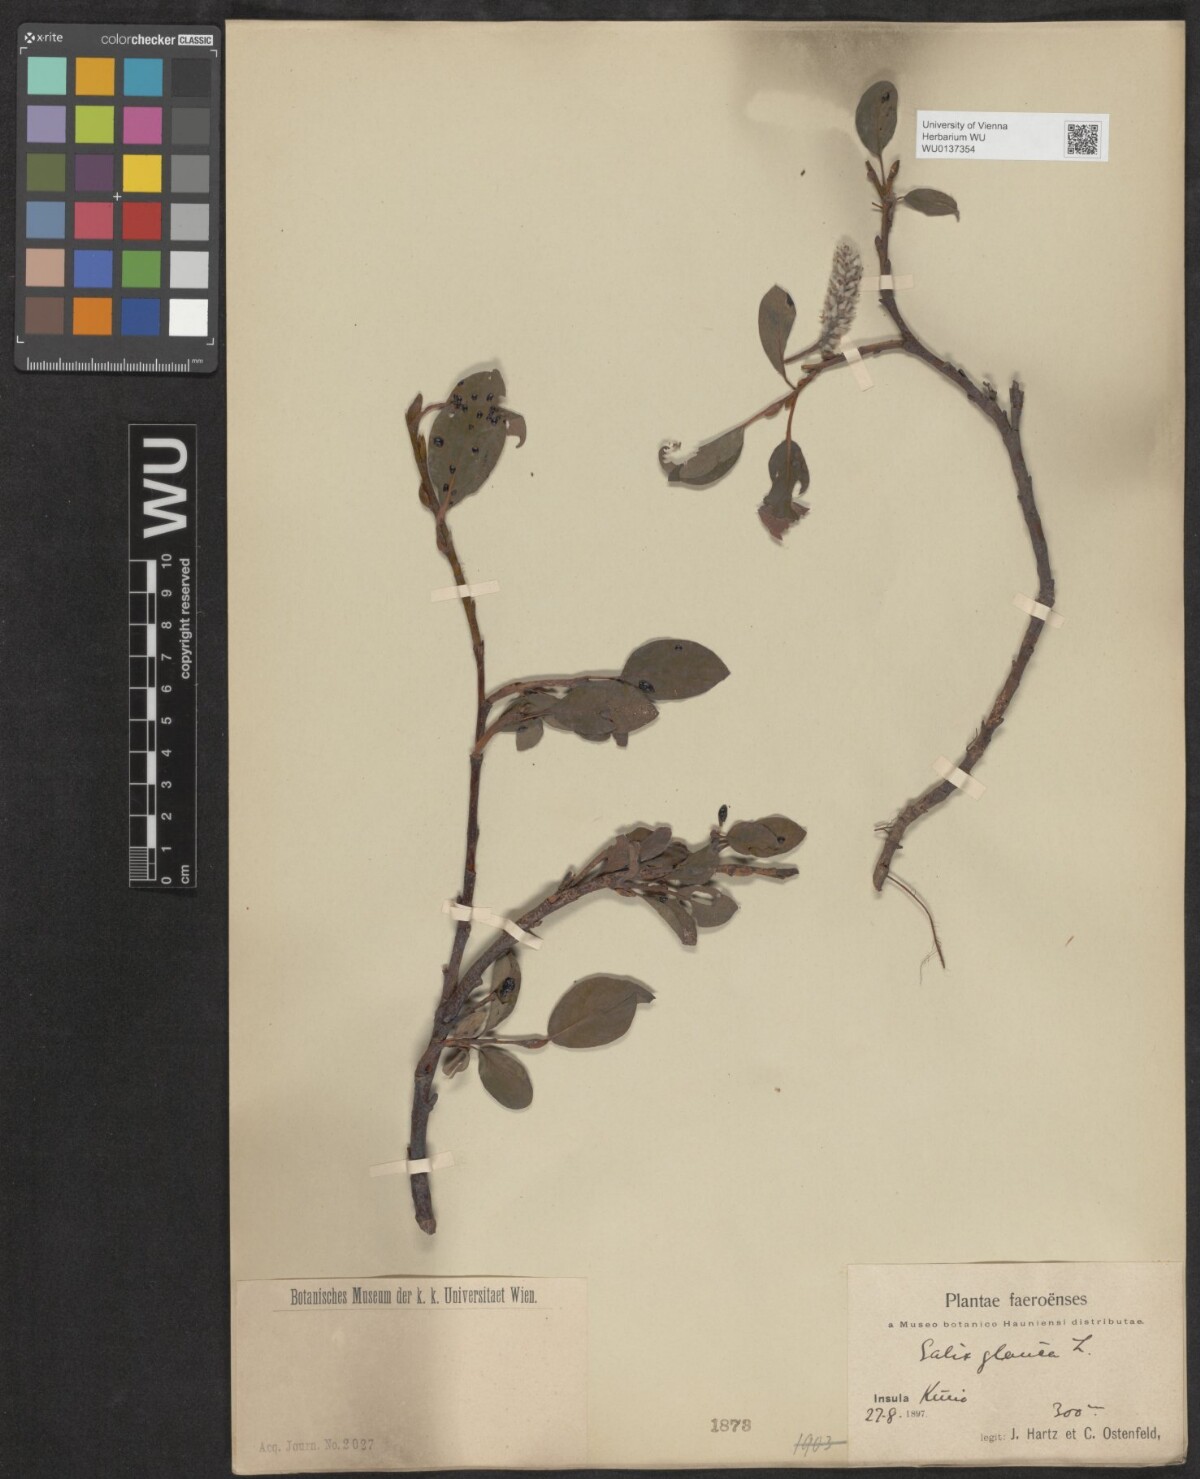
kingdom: Plantae
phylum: Tracheophyta
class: Magnoliopsida
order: Malpighiales
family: Salicaceae
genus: Salix
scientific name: Salix glauca
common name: Glaucous willow
